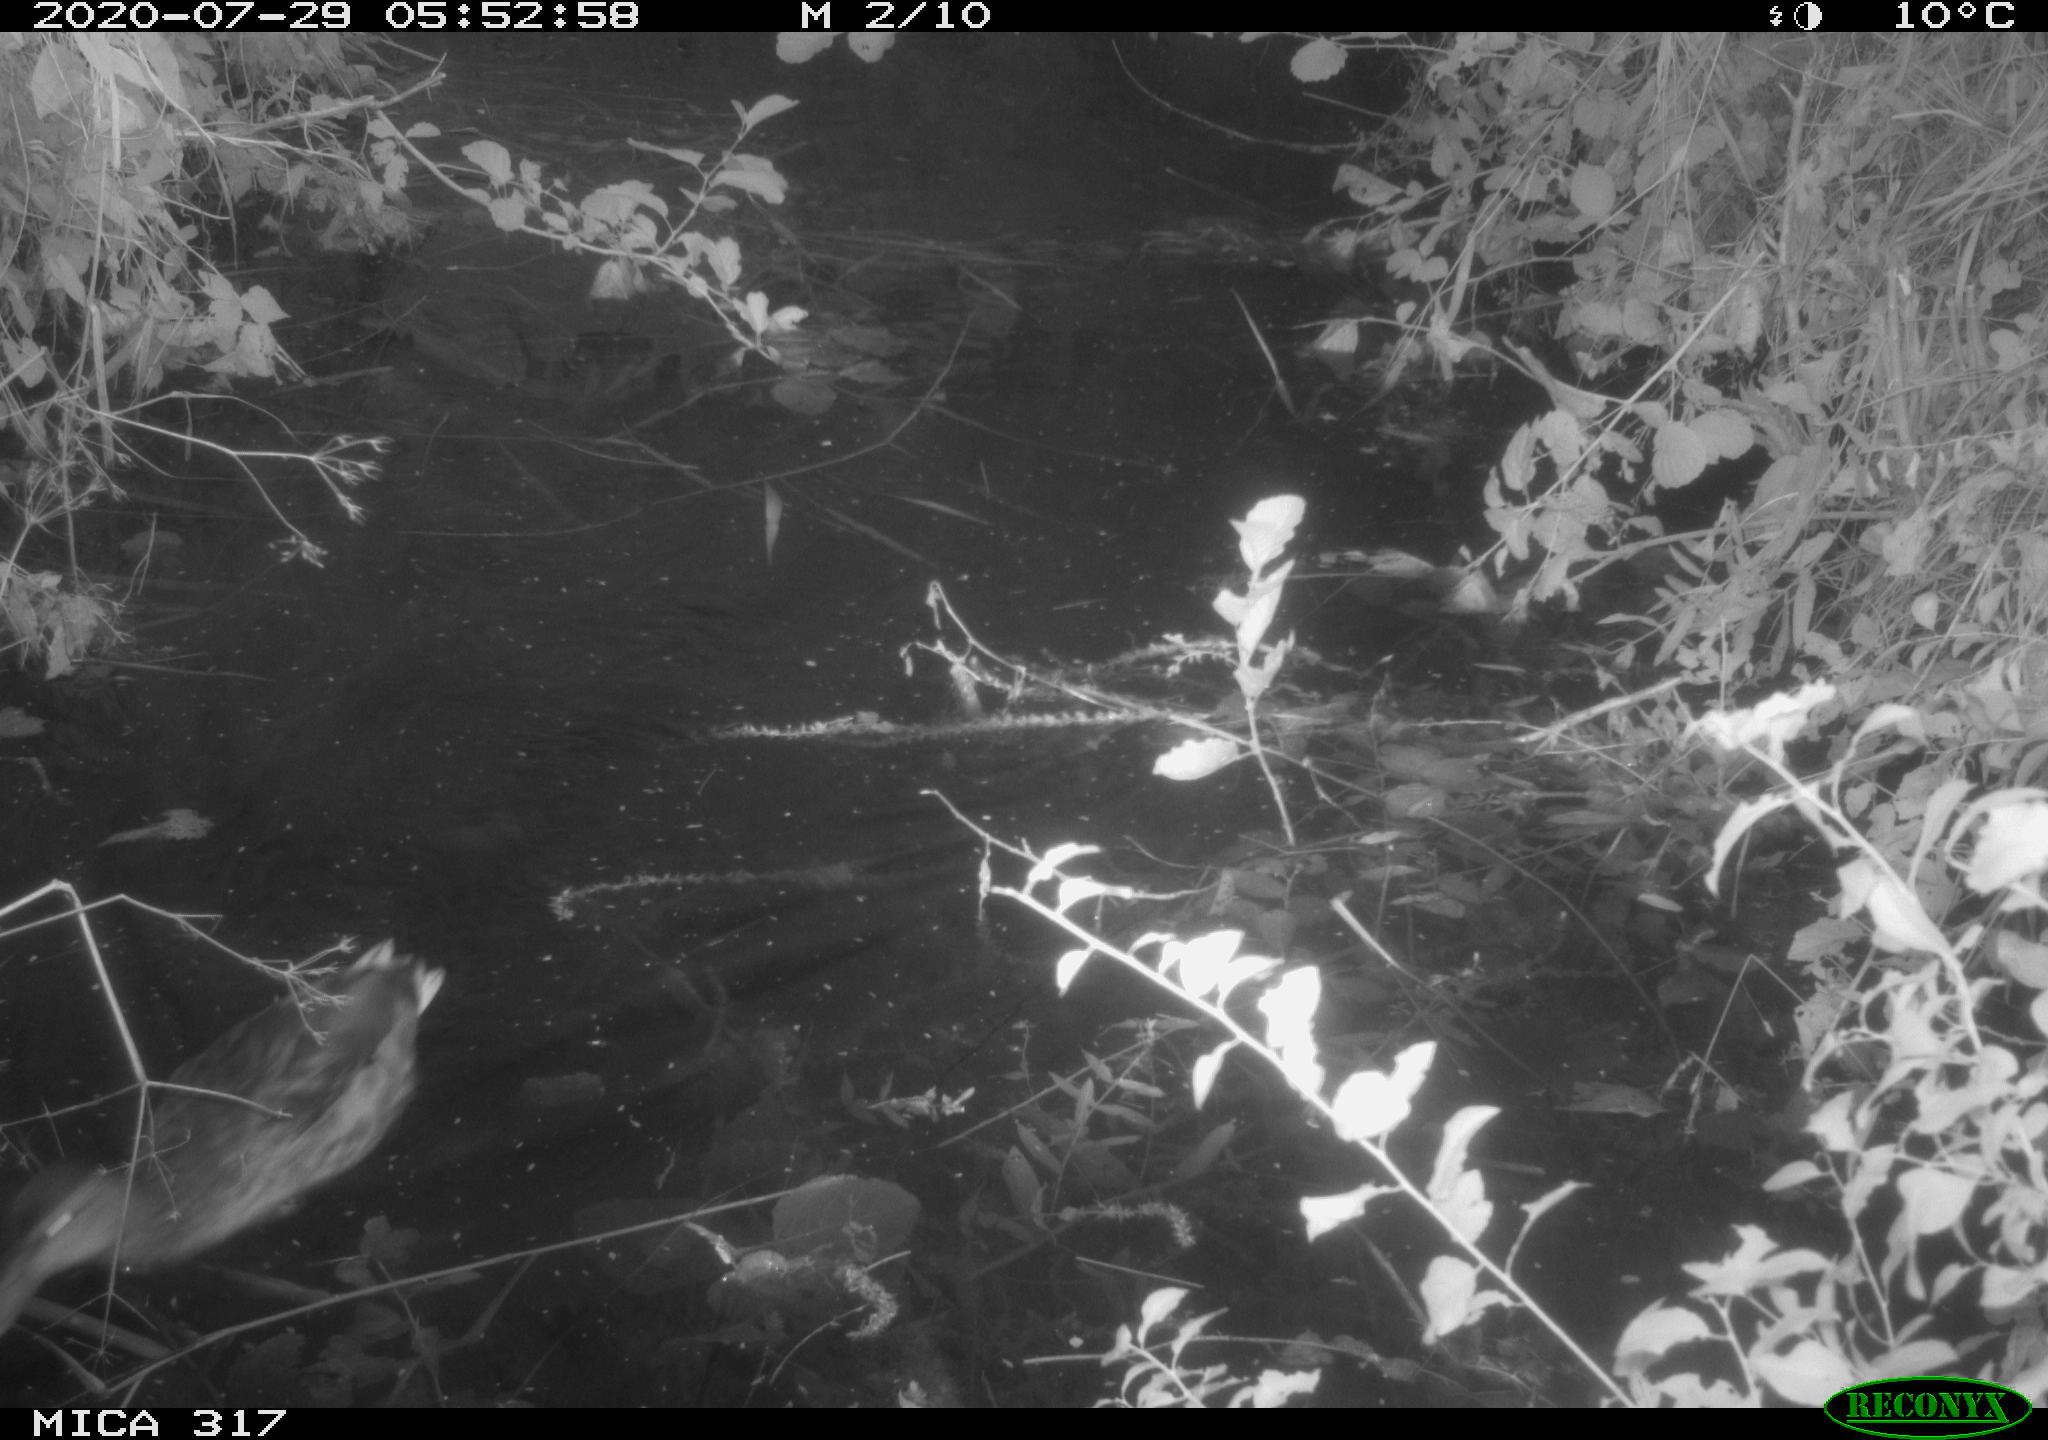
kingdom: Animalia
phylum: Chordata
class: Aves
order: Anseriformes
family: Anatidae
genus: Anas
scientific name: Anas platyrhynchos
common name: Mallard
